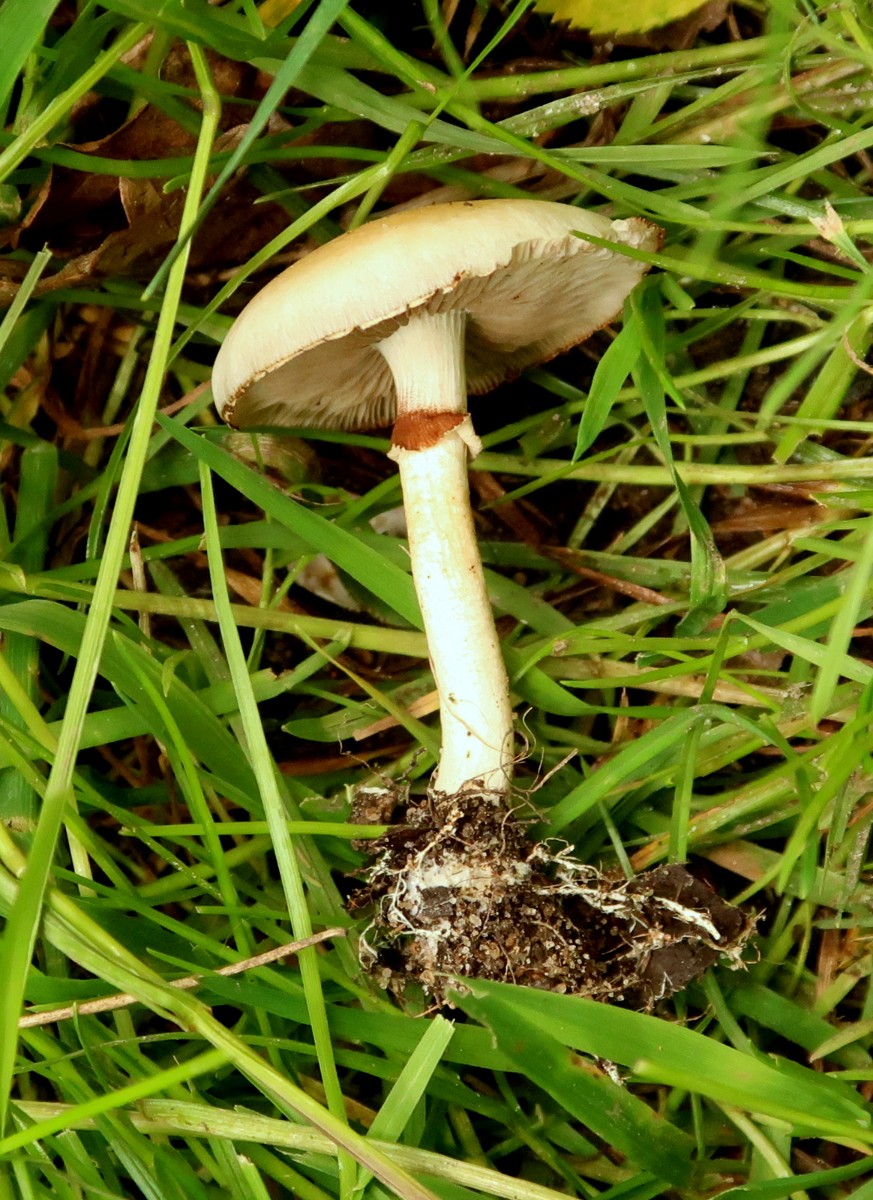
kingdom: Fungi
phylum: Basidiomycota
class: Agaricomycetes
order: Agaricales
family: Strophariaceae
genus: Agrocybe
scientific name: Agrocybe praecox
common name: tidlig agerhat
